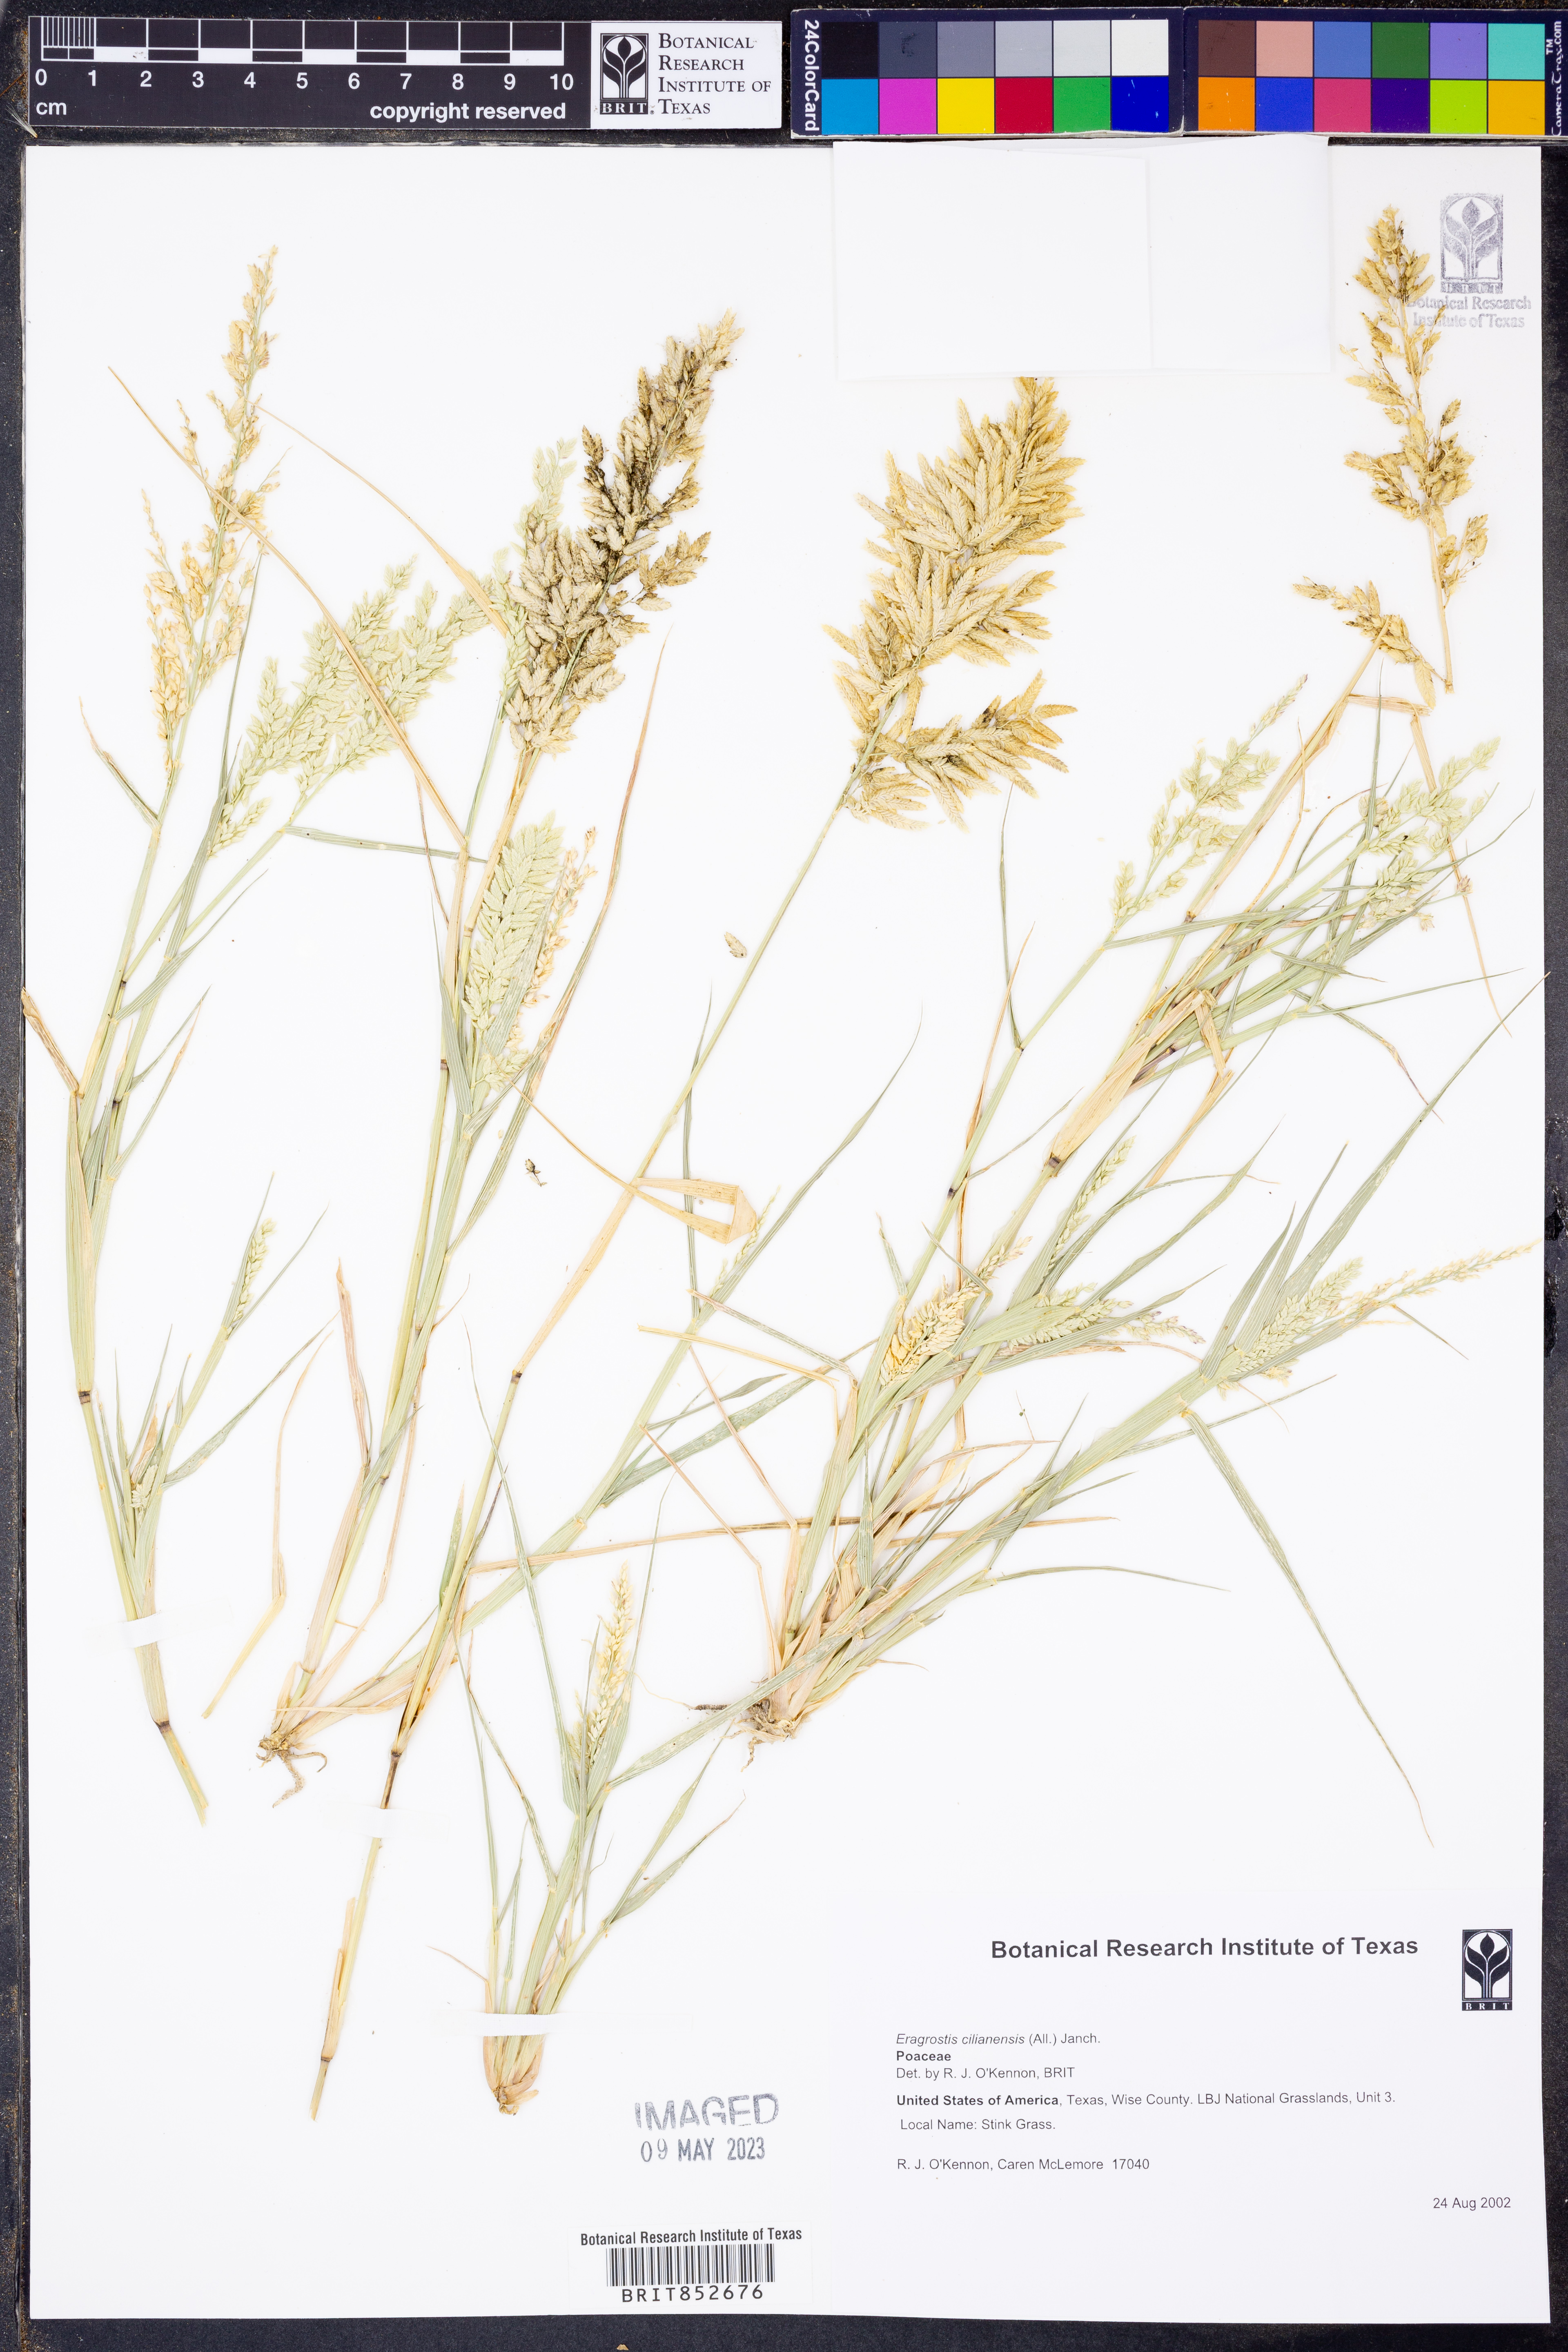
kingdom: Plantae
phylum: Tracheophyta
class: Liliopsida
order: Poales
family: Poaceae
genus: Eragrostis
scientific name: Eragrostis cilianensis
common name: Stinkgrass
